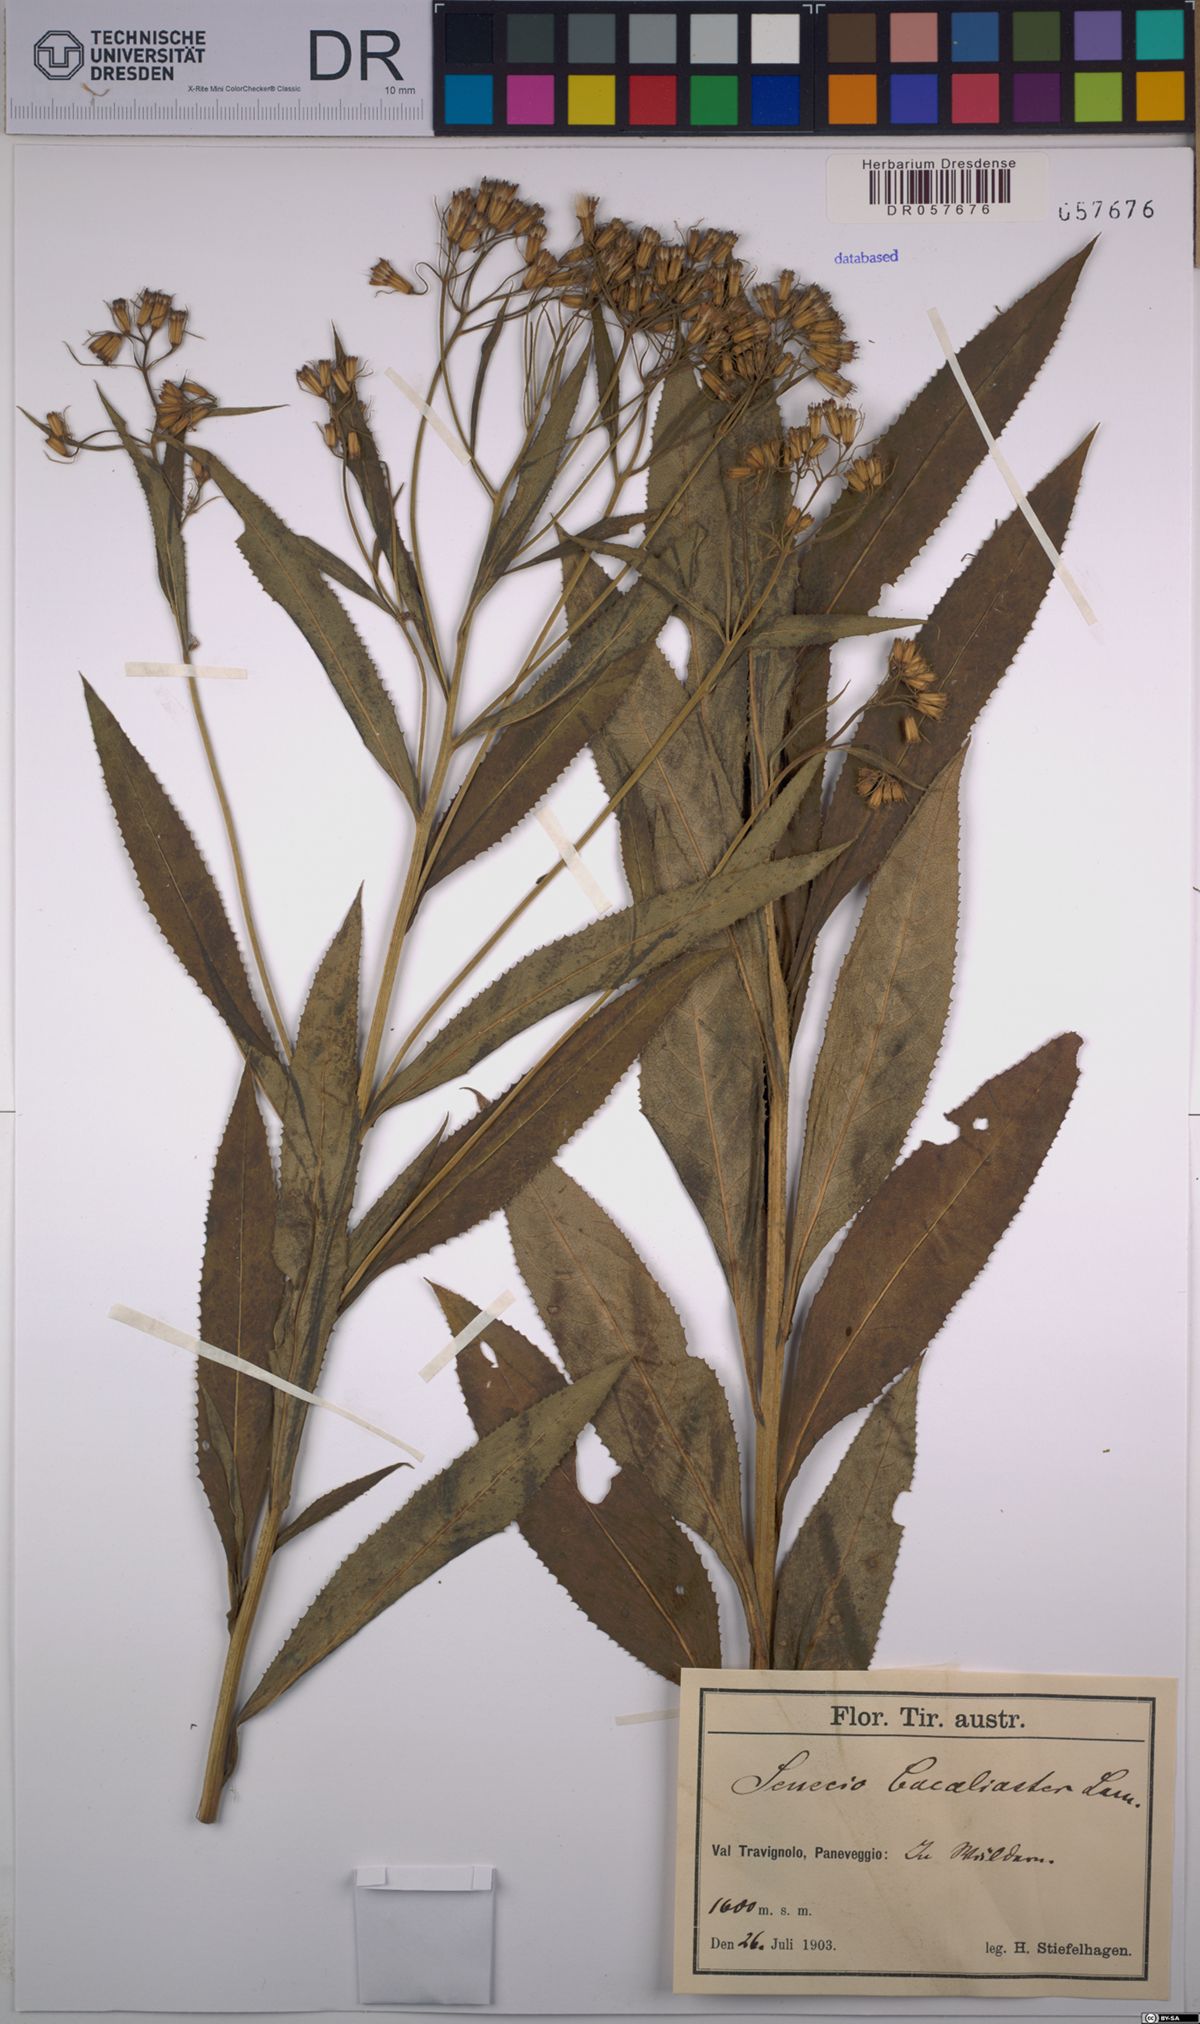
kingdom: Plantae
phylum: Tracheophyta
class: Magnoliopsida
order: Asterales
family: Asteraceae
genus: Senecio
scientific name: Senecio cacaliaster
